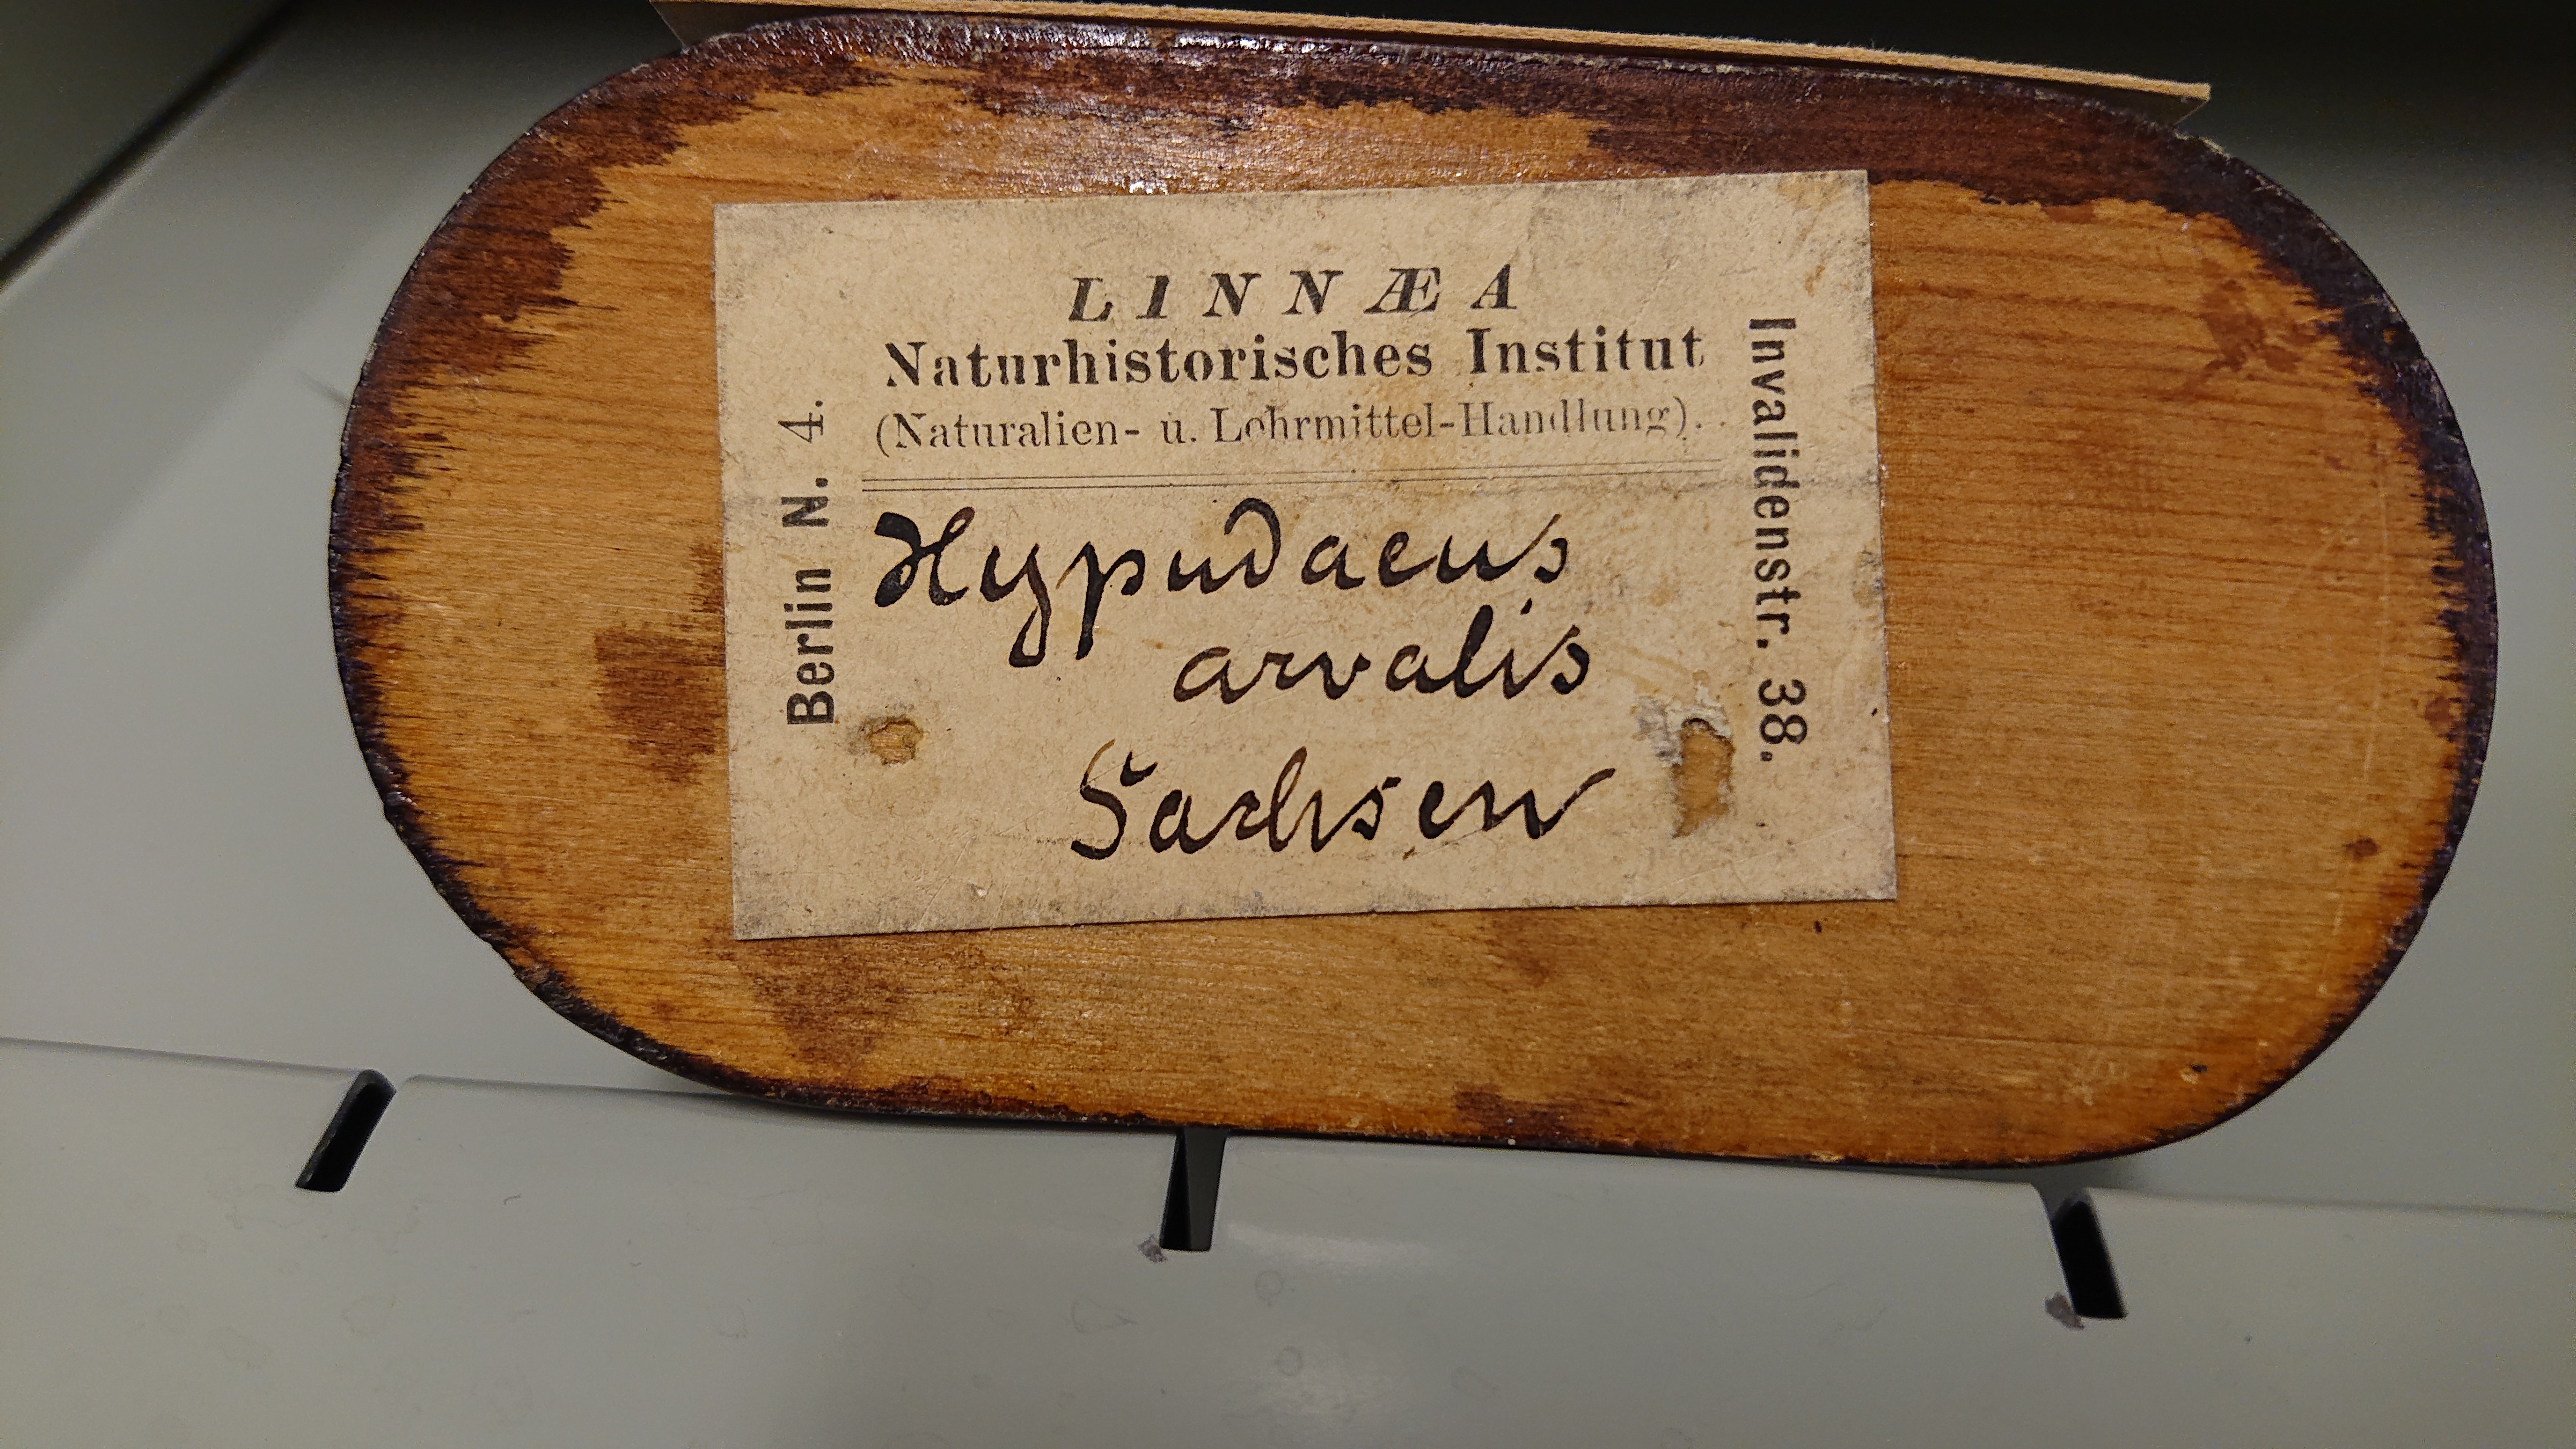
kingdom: Animalia
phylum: Chordata
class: Mammalia
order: Rodentia
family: Cricetidae
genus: Microtus
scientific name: Microtus arvalis
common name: Common vole
